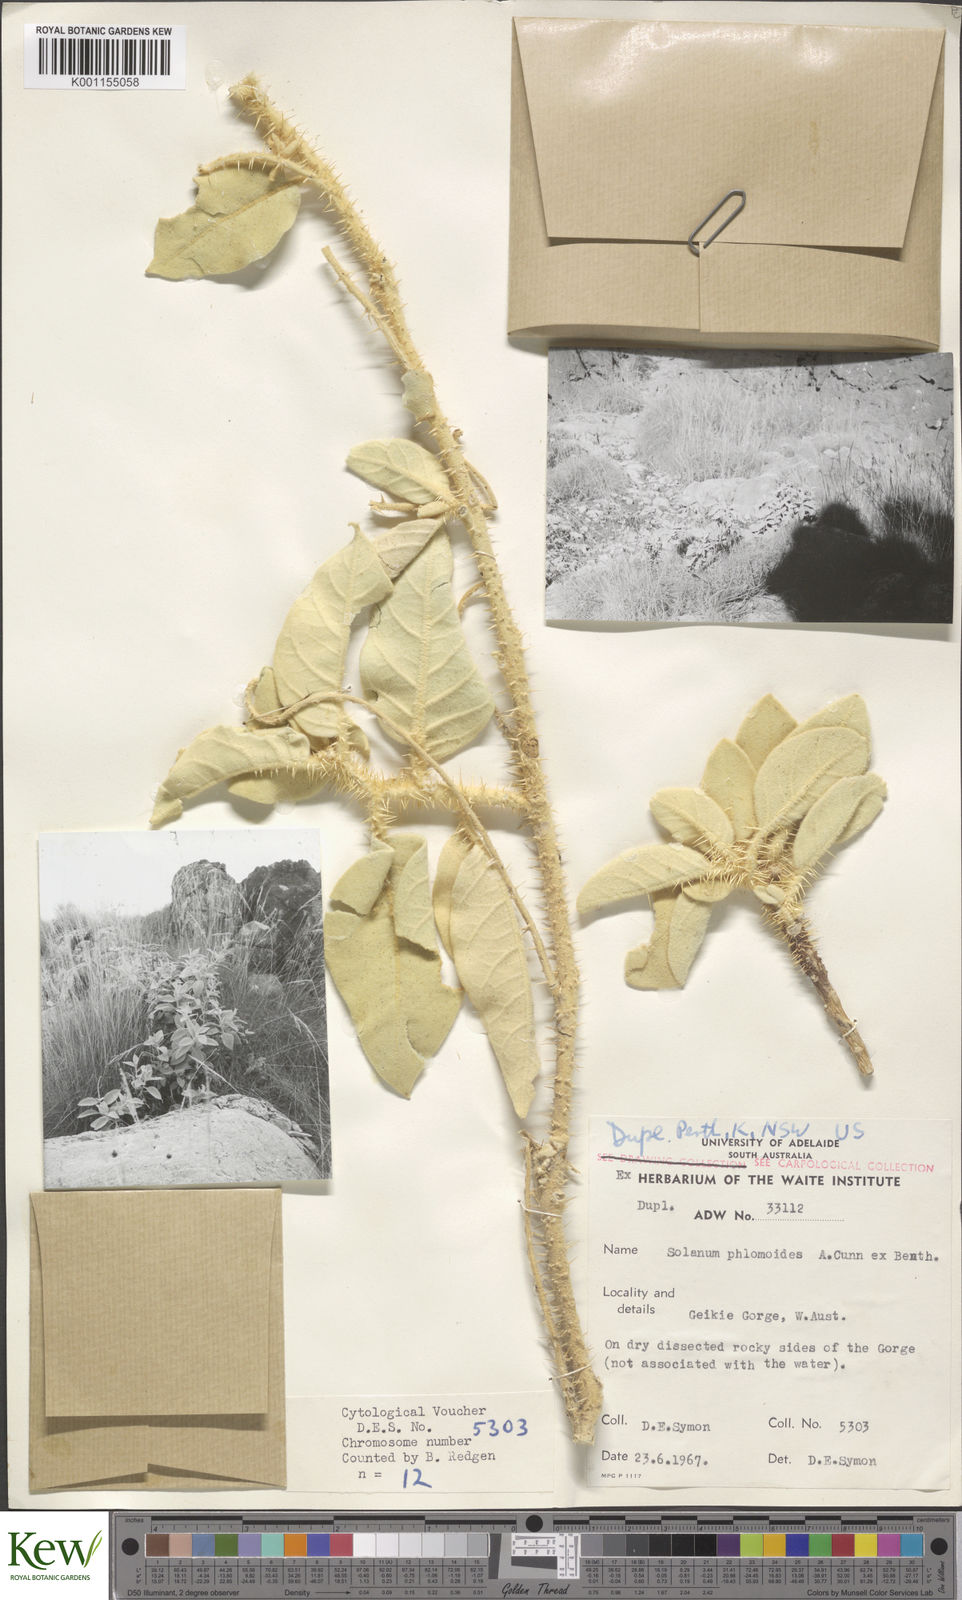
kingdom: Plantae
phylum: Tracheophyta
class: Magnoliopsida
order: Solanales
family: Solanaceae
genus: Solanum
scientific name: Solanum beaugleholei
